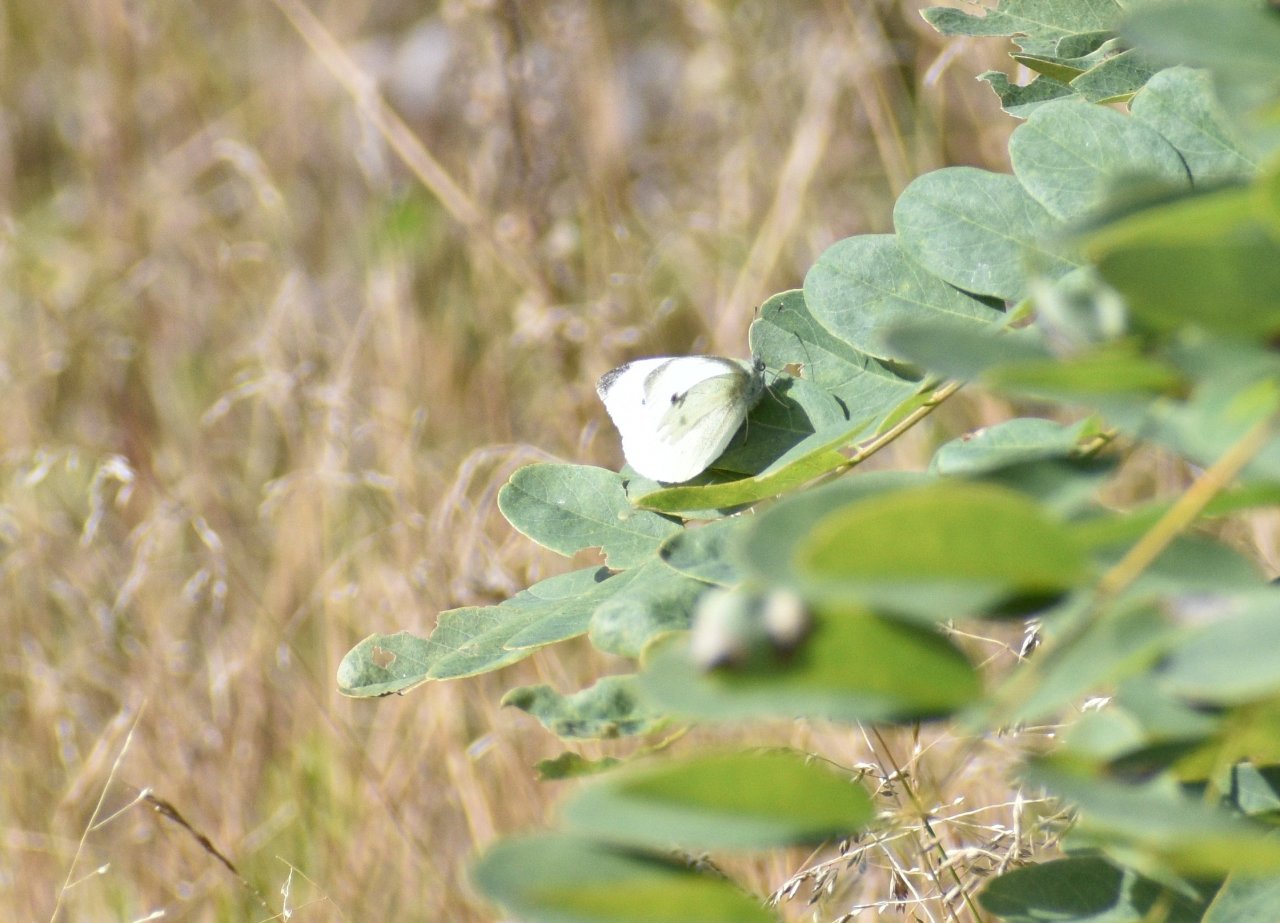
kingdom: Animalia
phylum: Arthropoda
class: Insecta
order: Lepidoptera
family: Pieridae
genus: Pieris
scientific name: Pieris rapae
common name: Cabbage White
